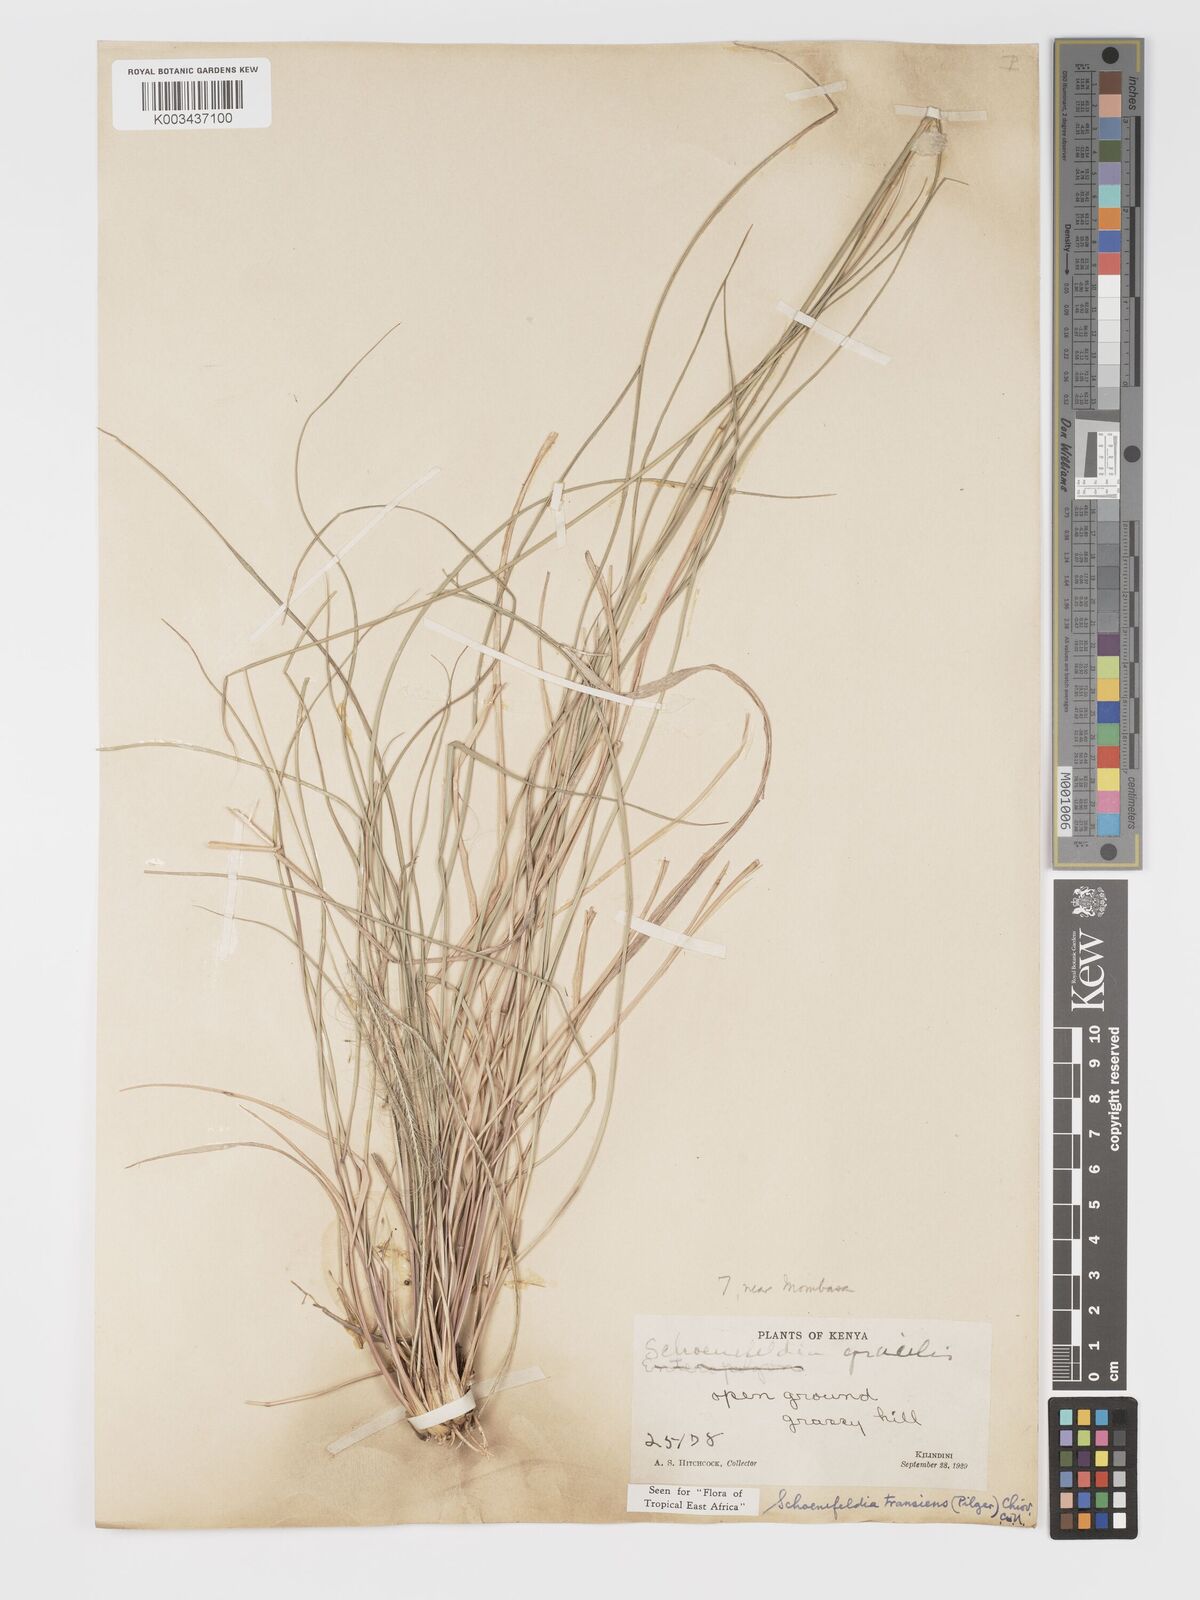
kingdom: Plantae
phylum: Tracheophyta
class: Liliopsida
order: Poales
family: Poaceae
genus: Schoenefeldia
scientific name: Schoenefeldia transiens
